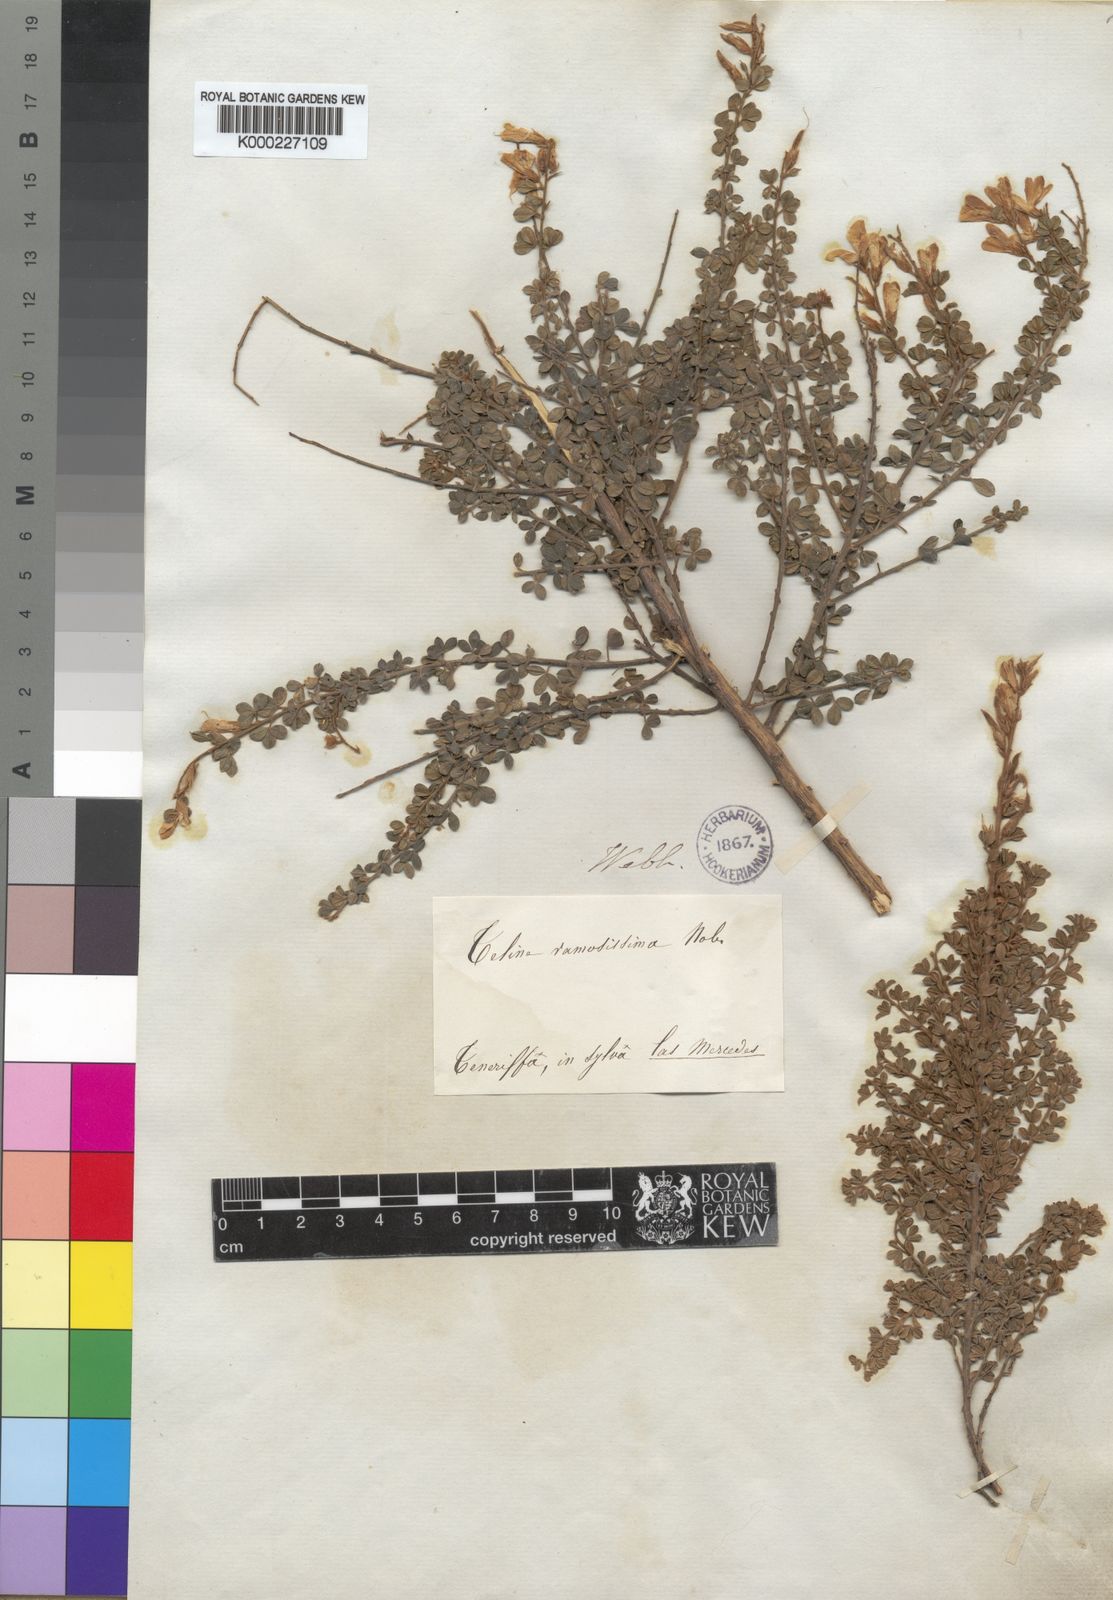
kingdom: Plantae
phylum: Tracheophyta
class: Magnoliopsida
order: Fabales
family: Fabaceae
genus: Genista
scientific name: Genista canariensis
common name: Canary broom
